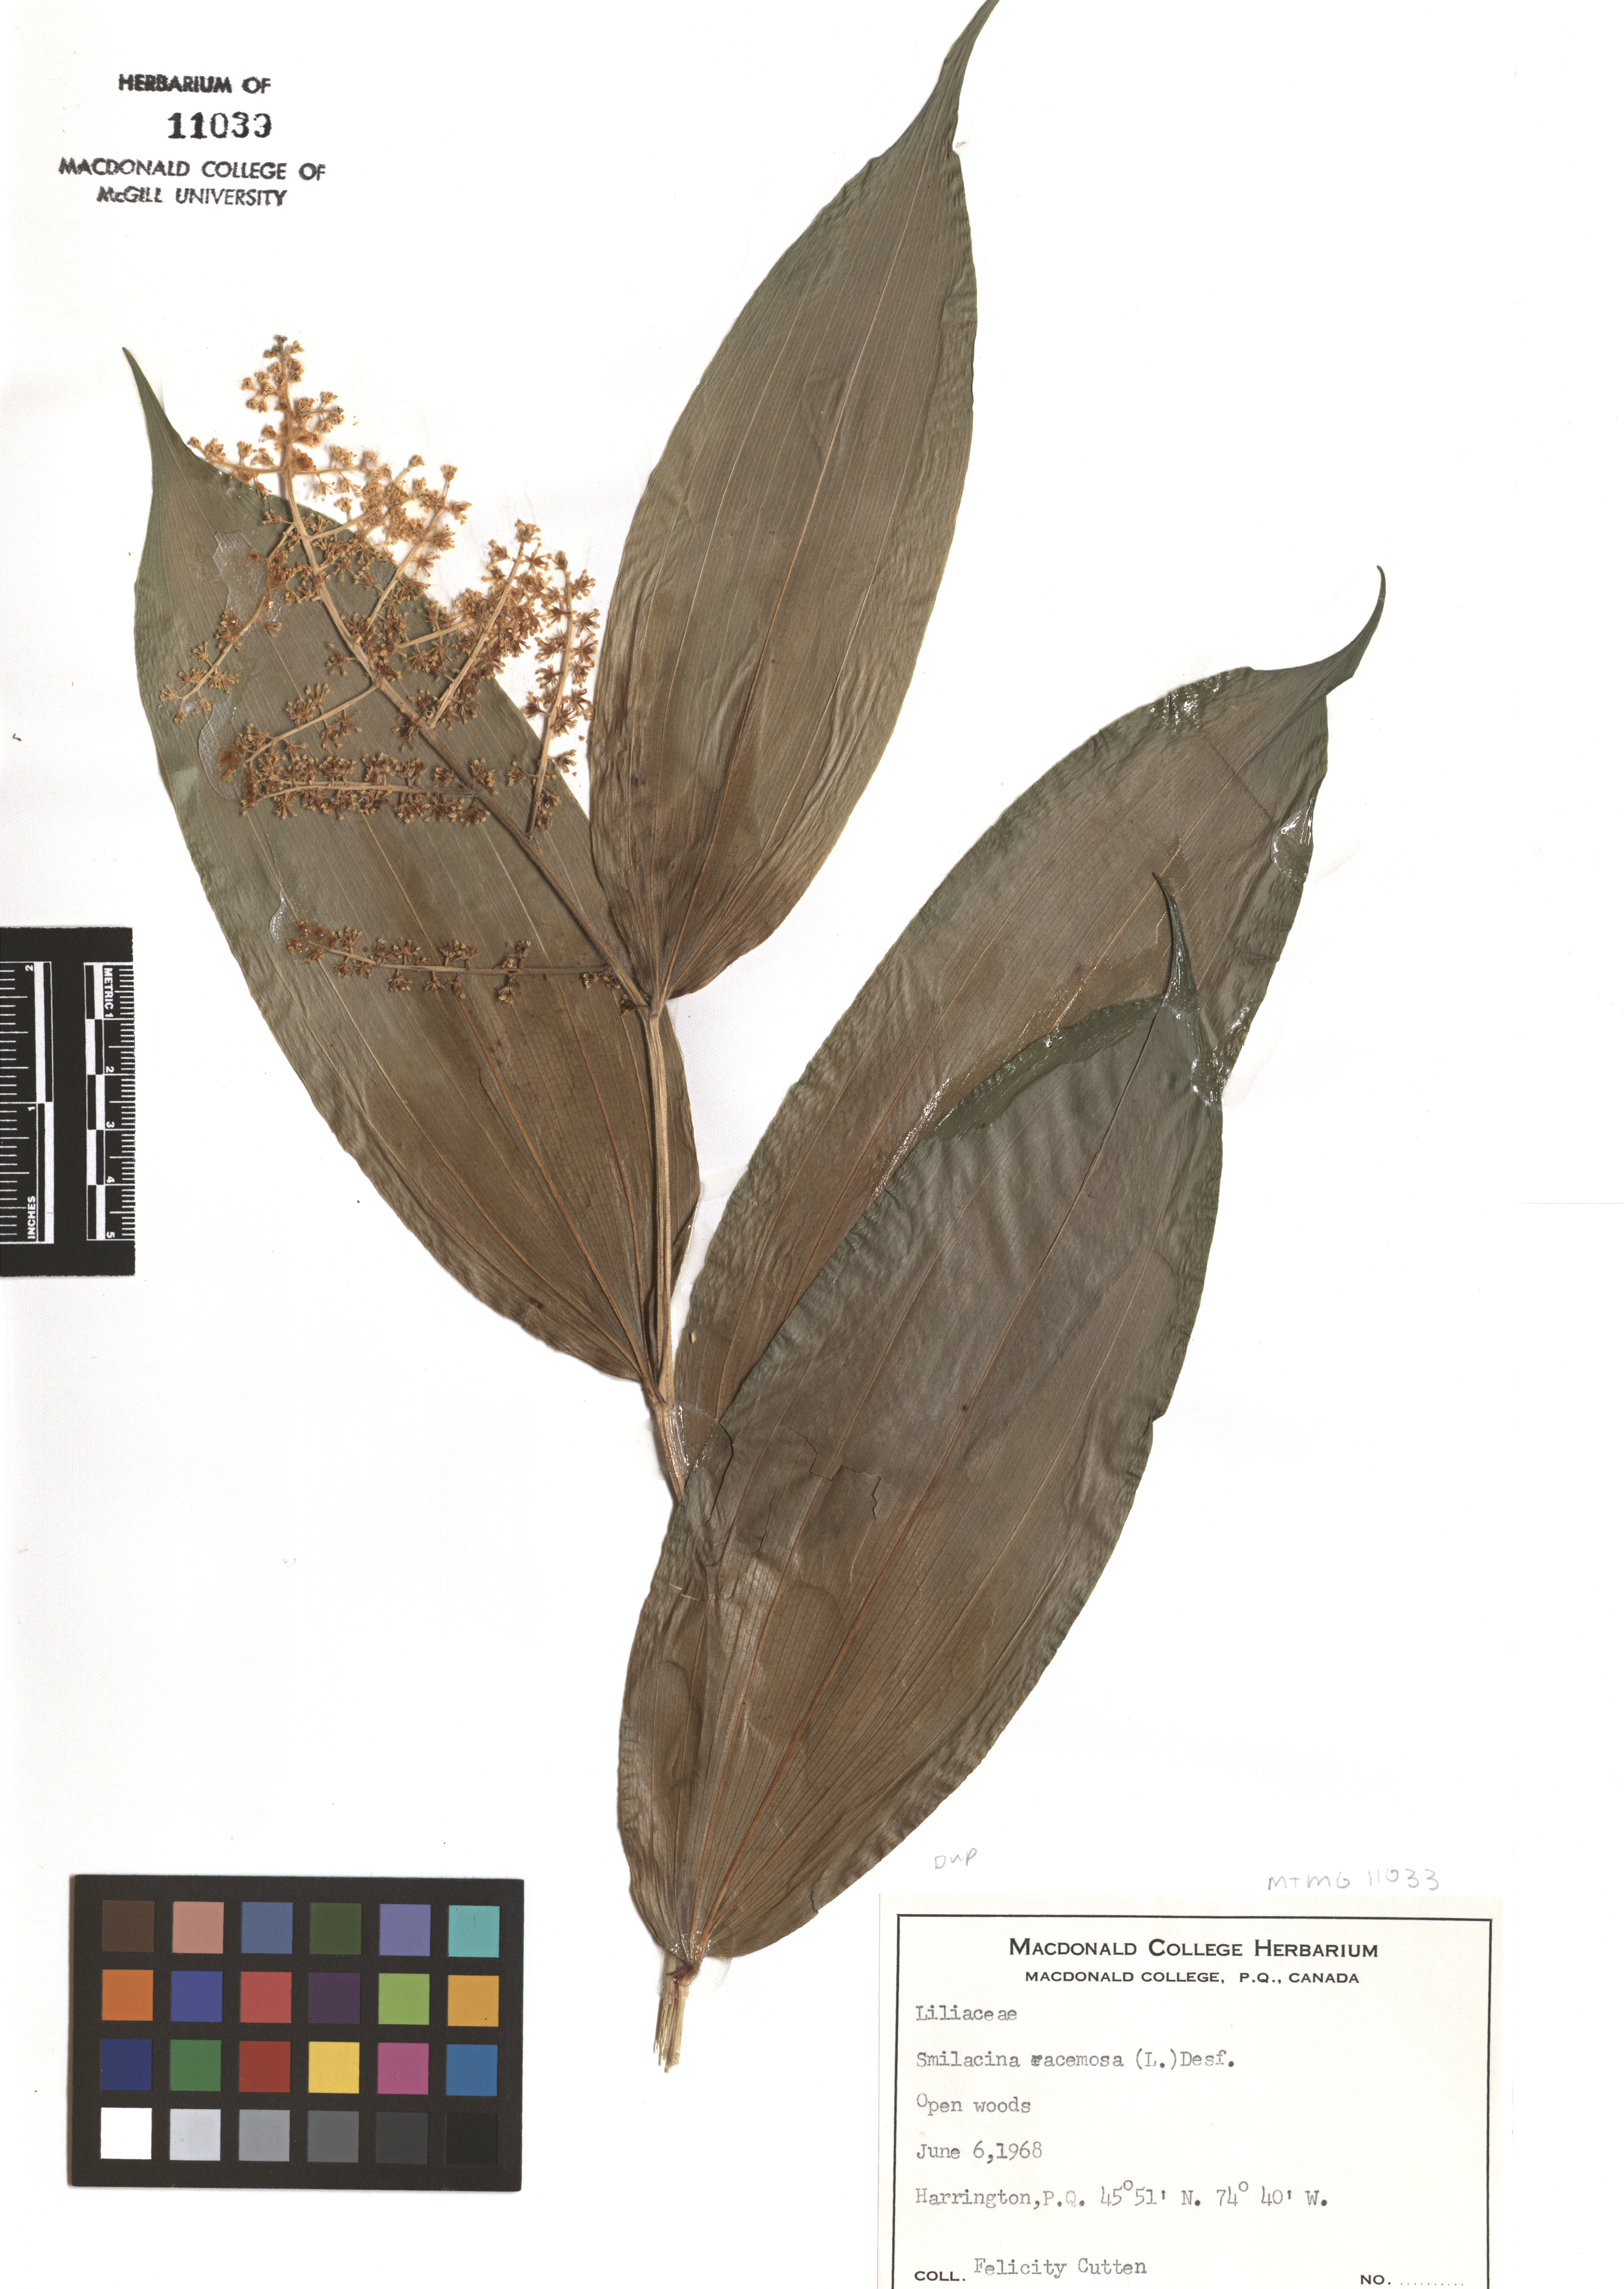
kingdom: Plantae
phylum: Tracheophyta
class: Liliopsida
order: Asparagales
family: Asparagaceae
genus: Maianthemum
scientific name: Maianthemum racemosum
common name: False spikenard
